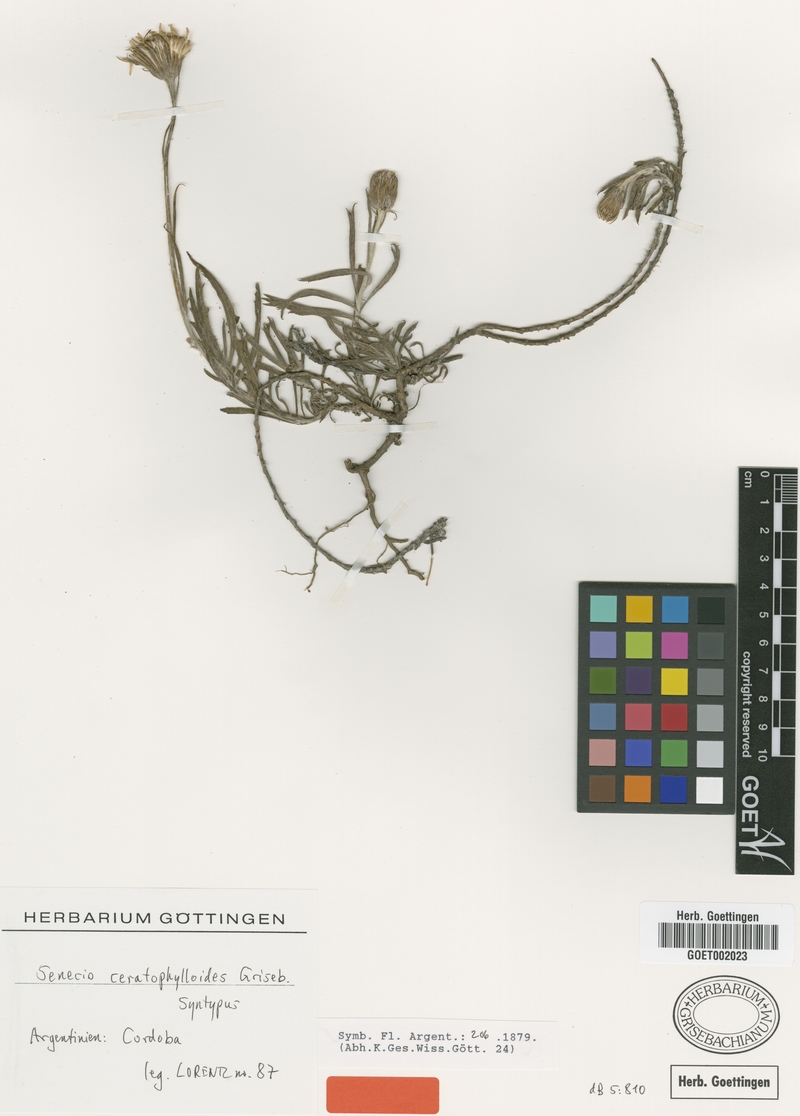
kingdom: Plantae
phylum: Tracheophyta
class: Magnoliopsida
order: Asterales
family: Asteraceae
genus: Senecio
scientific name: Senecio ceratophylloides
